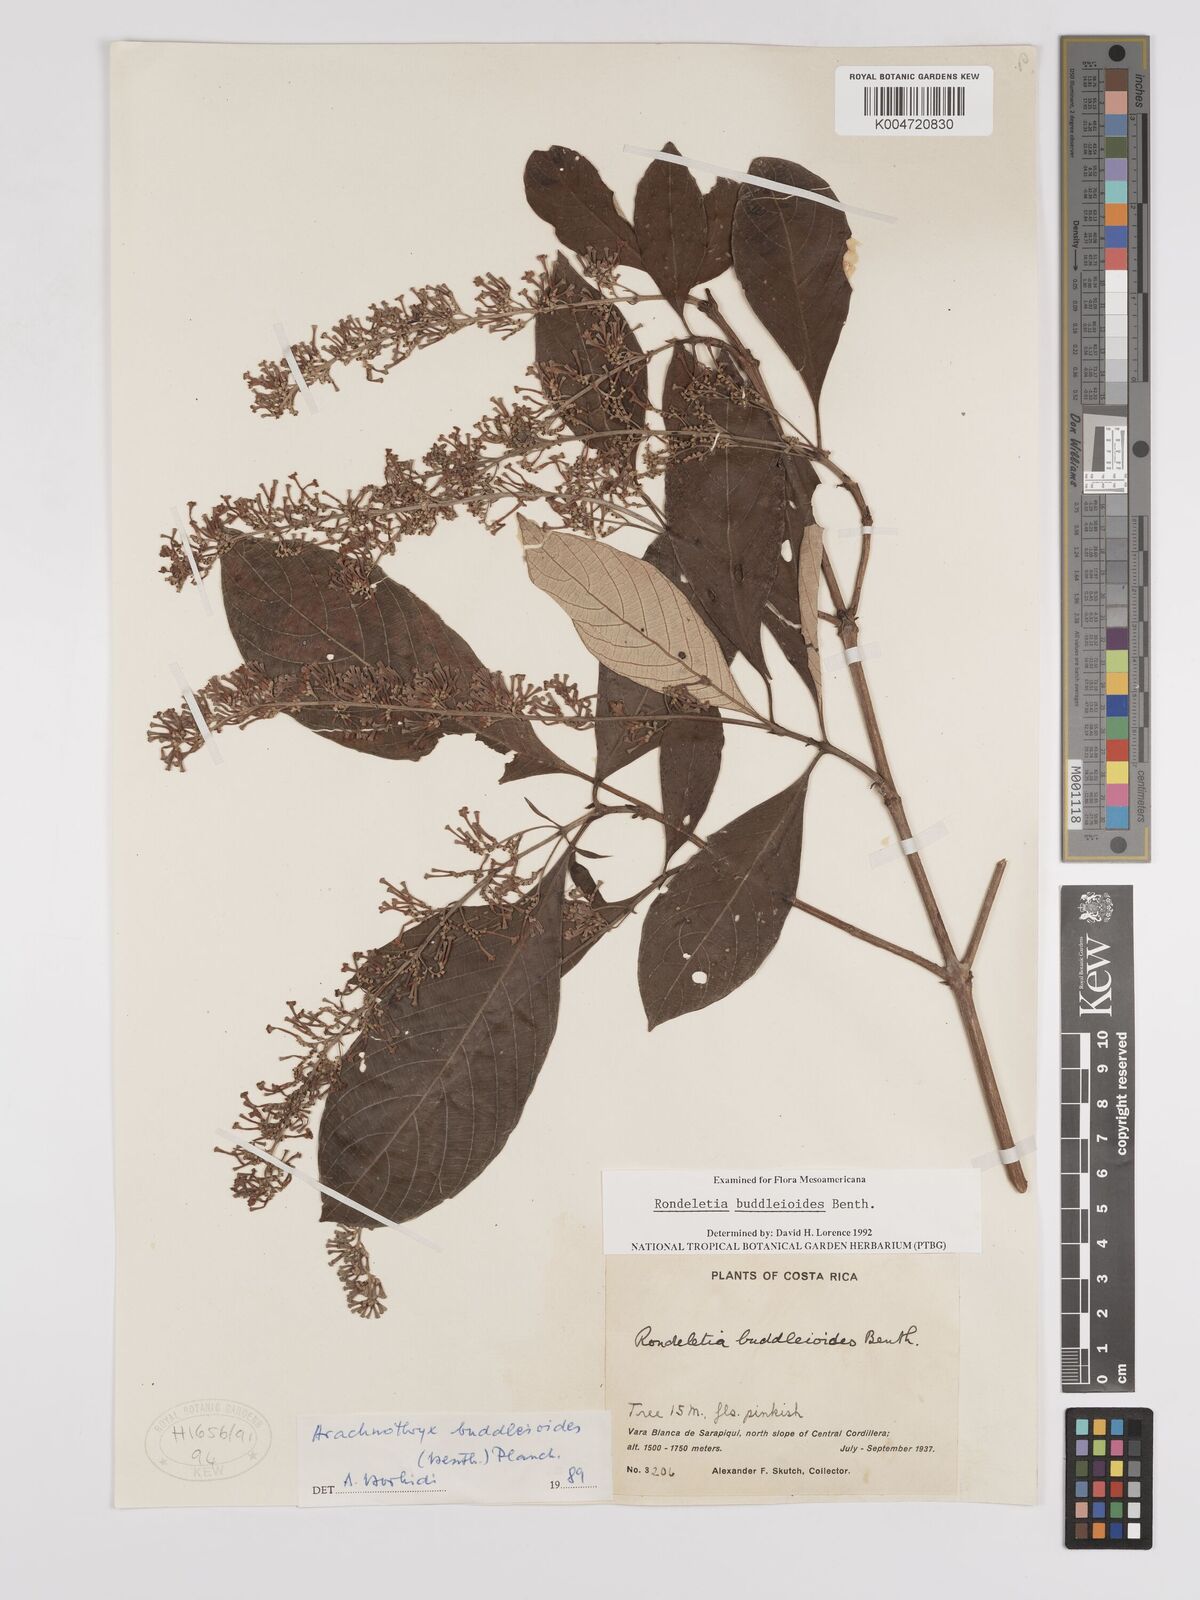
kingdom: Plantae
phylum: Tracheophyta
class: Magnoliopsida
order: Gentianales
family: Rubiaceae
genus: Arachnothryx
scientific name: Arachnothryx buddleioides
